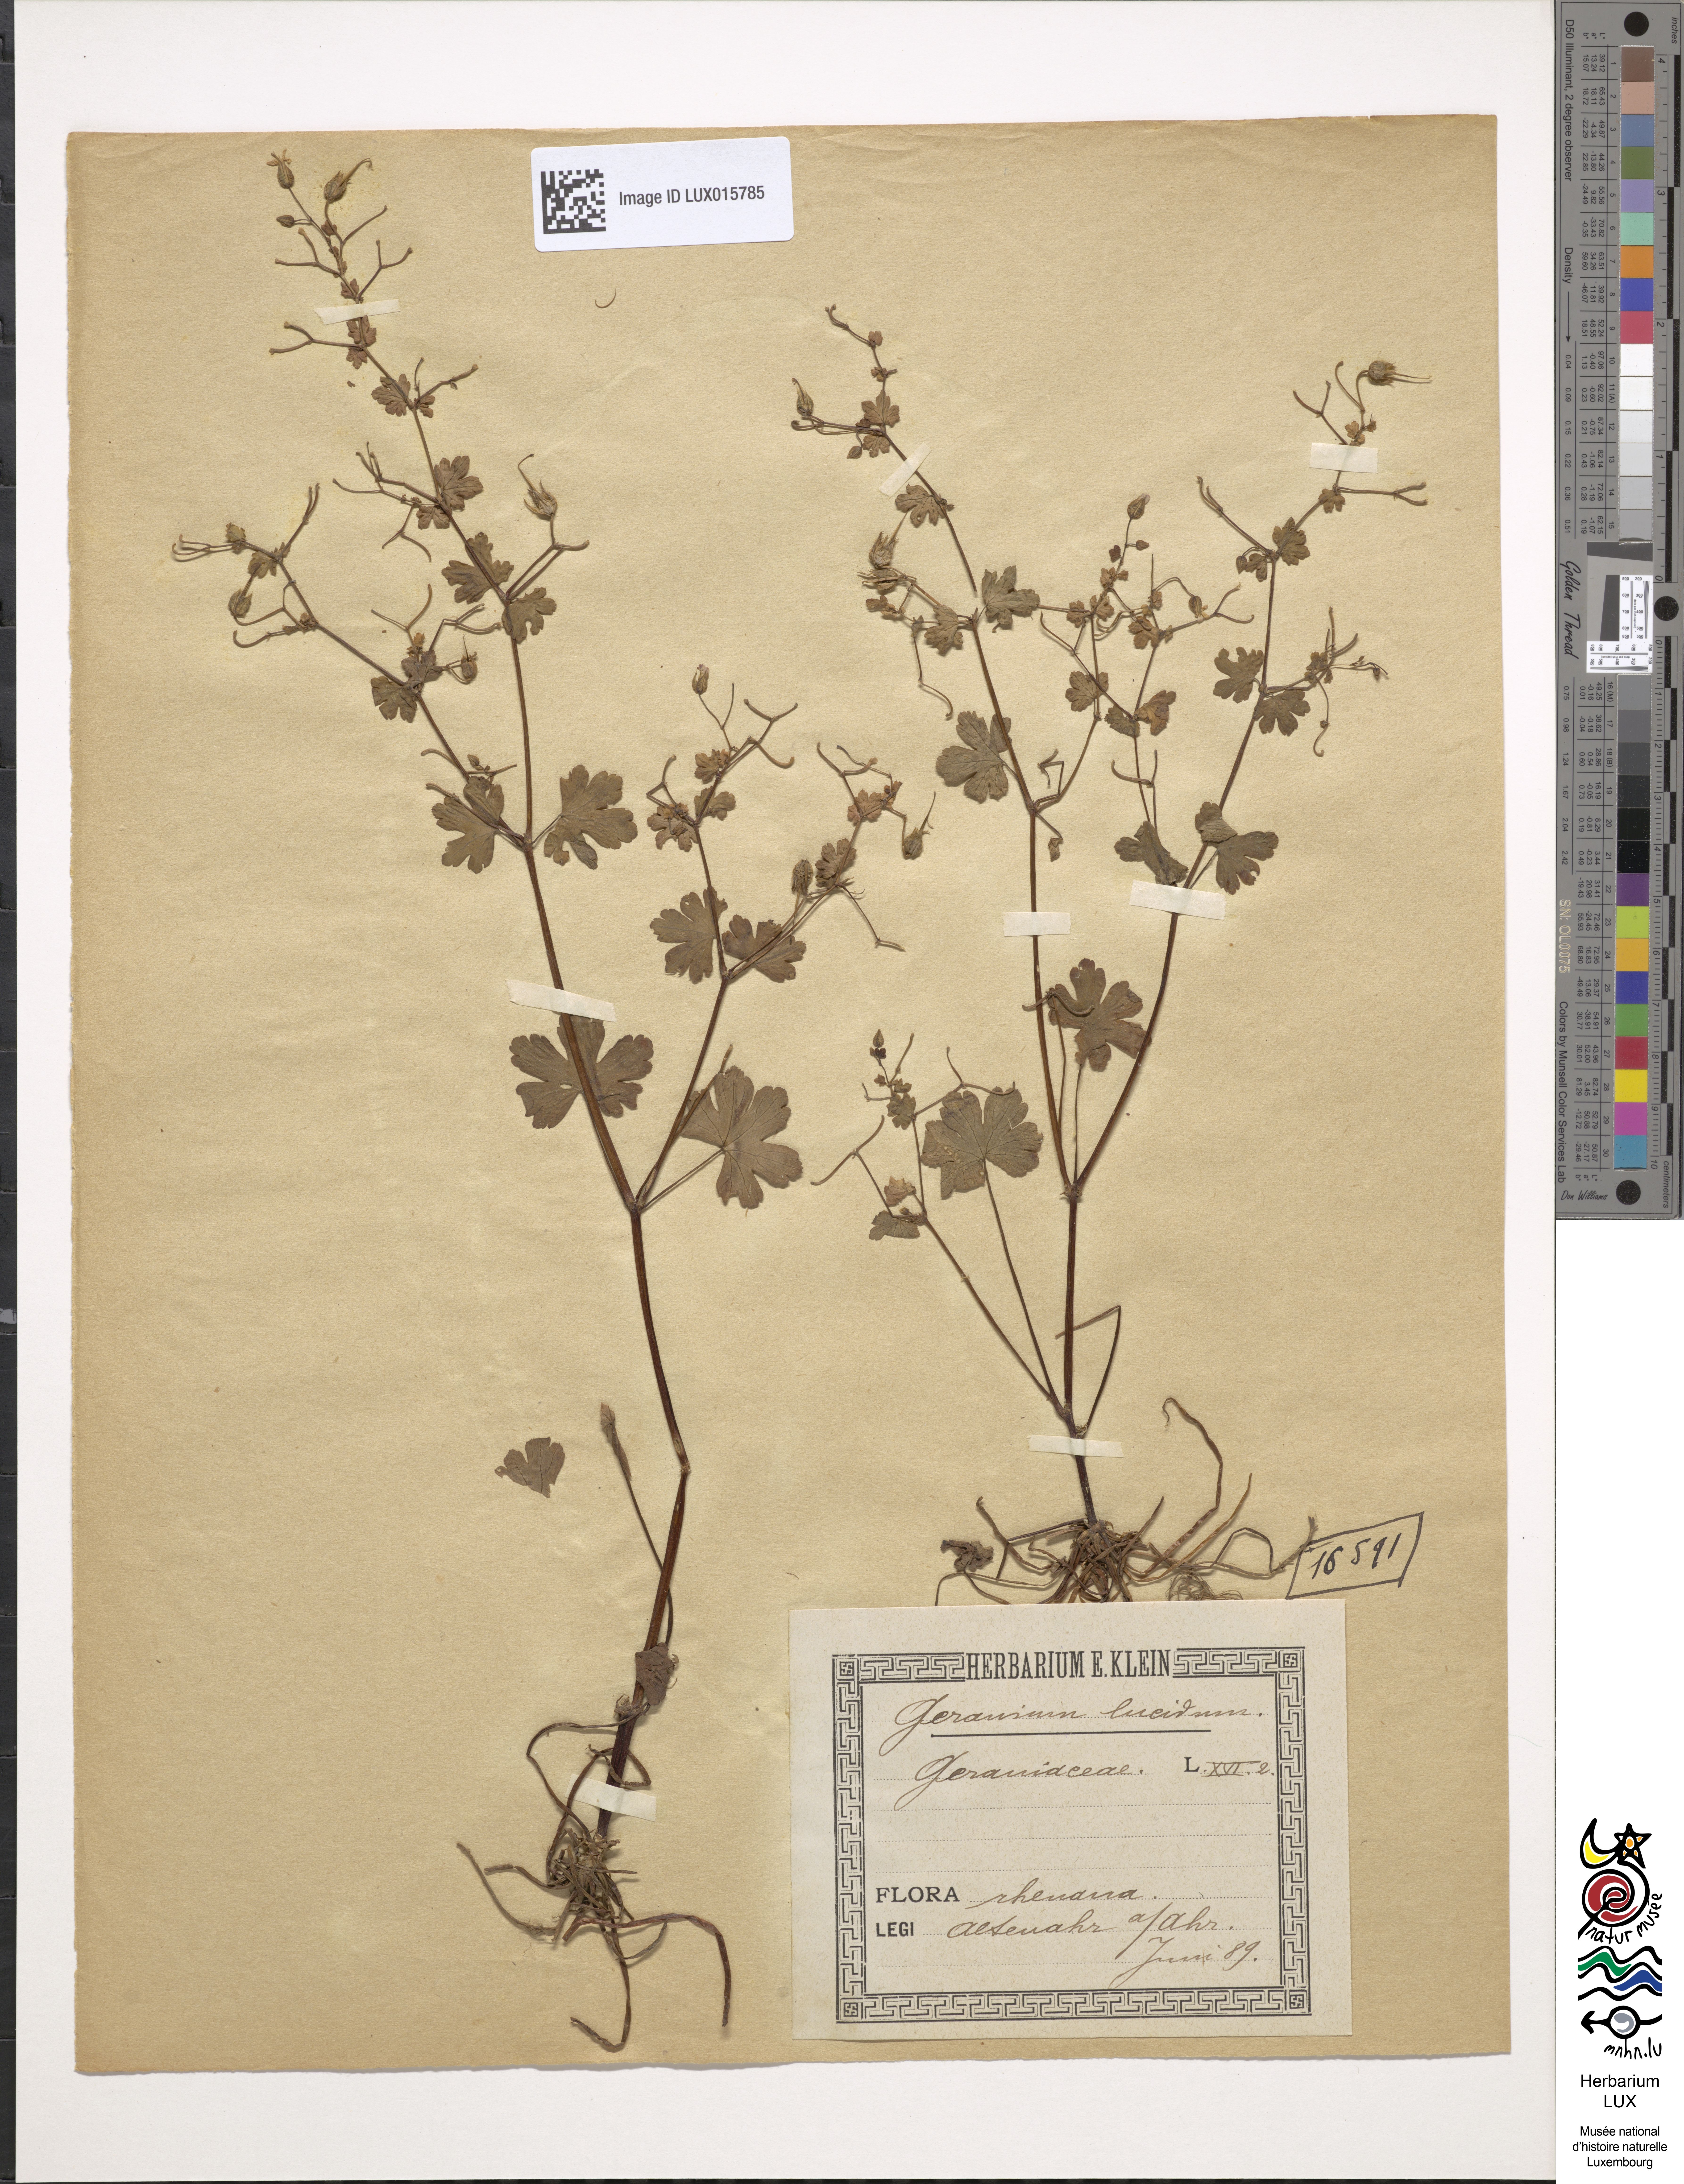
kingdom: Plantae
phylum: Tracheophyta
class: Magnoliopsida
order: Geraniales
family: Geraniaceae
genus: Geranium
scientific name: Geranium lucidum
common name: Shining crane's-bill
